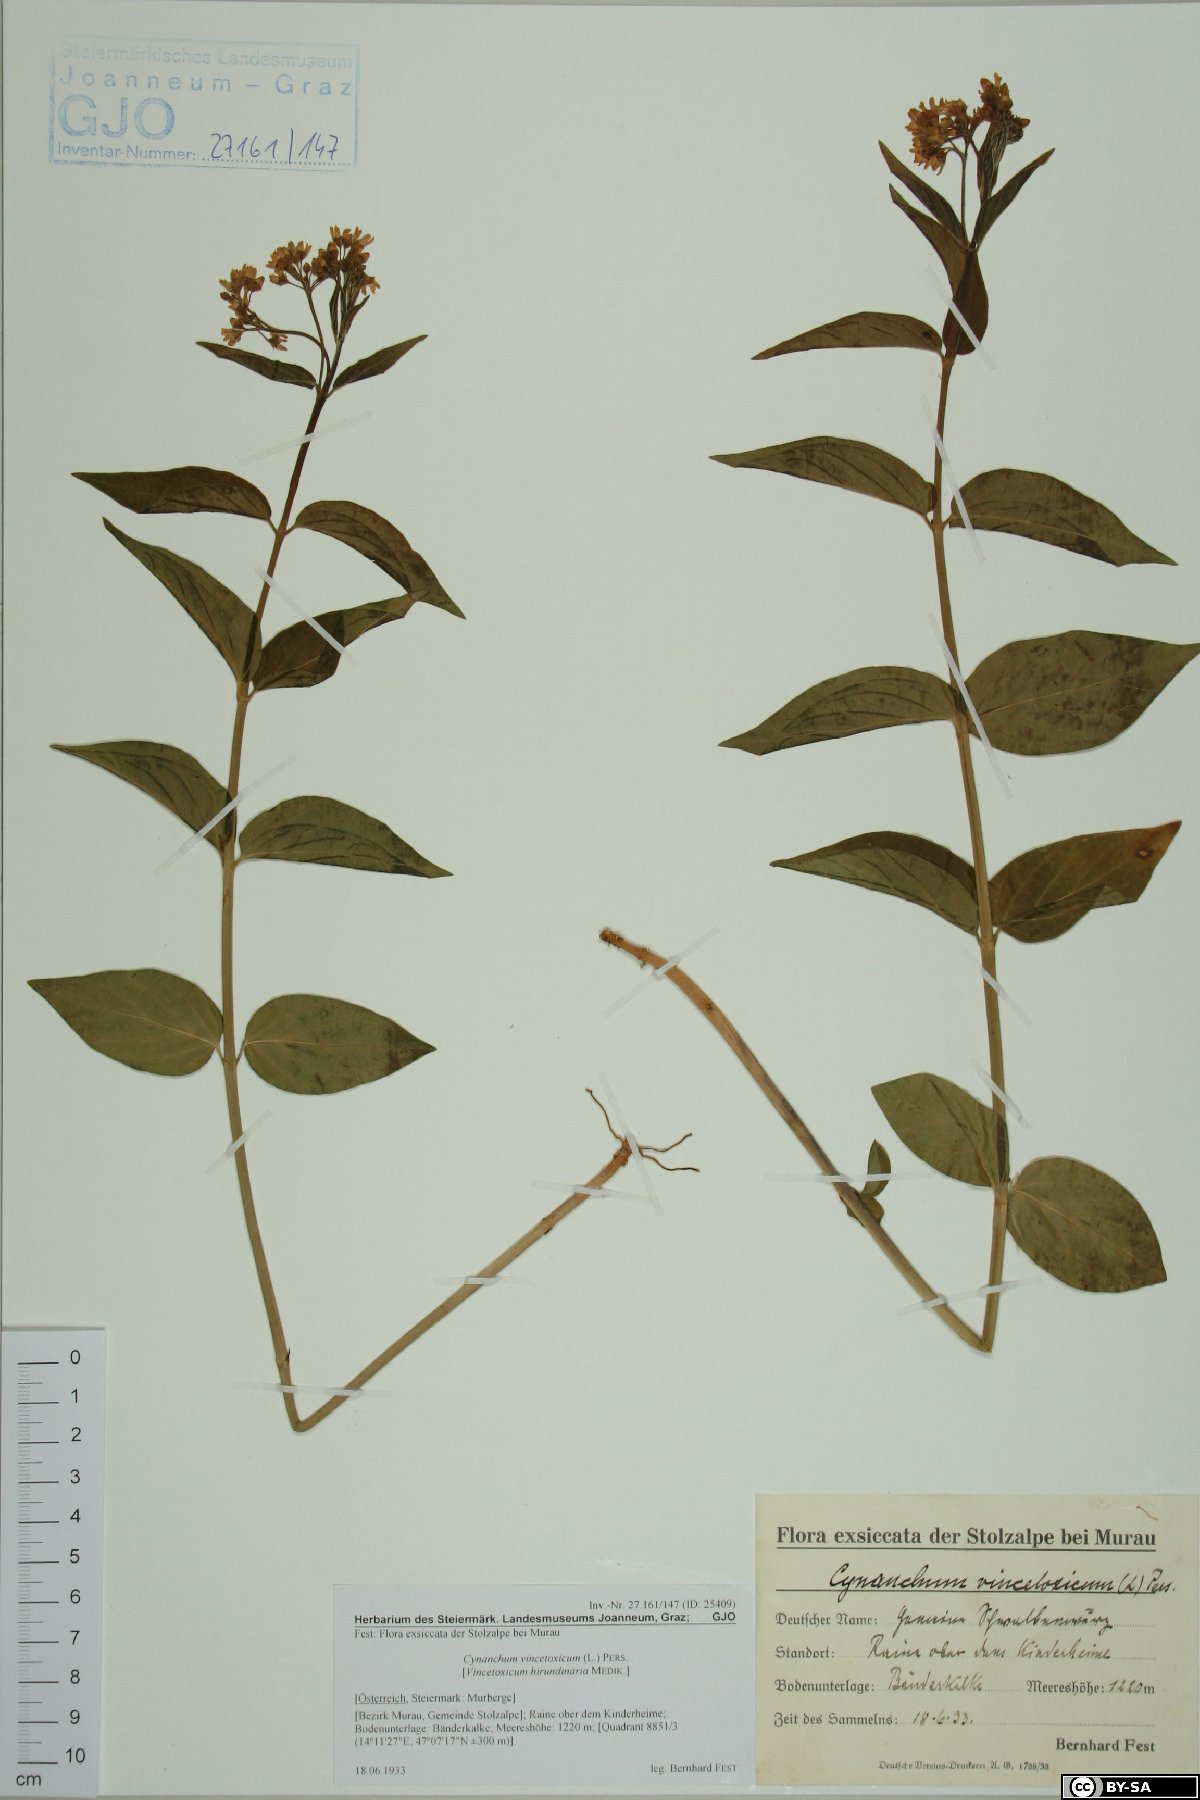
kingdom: Plantae
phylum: Tracheophyta
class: Magnoliopsida
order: Gentianales
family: Apocynaceae
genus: Vincetoxicum
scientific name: Vincetoxicum hirundinaria
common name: White swallowwort
